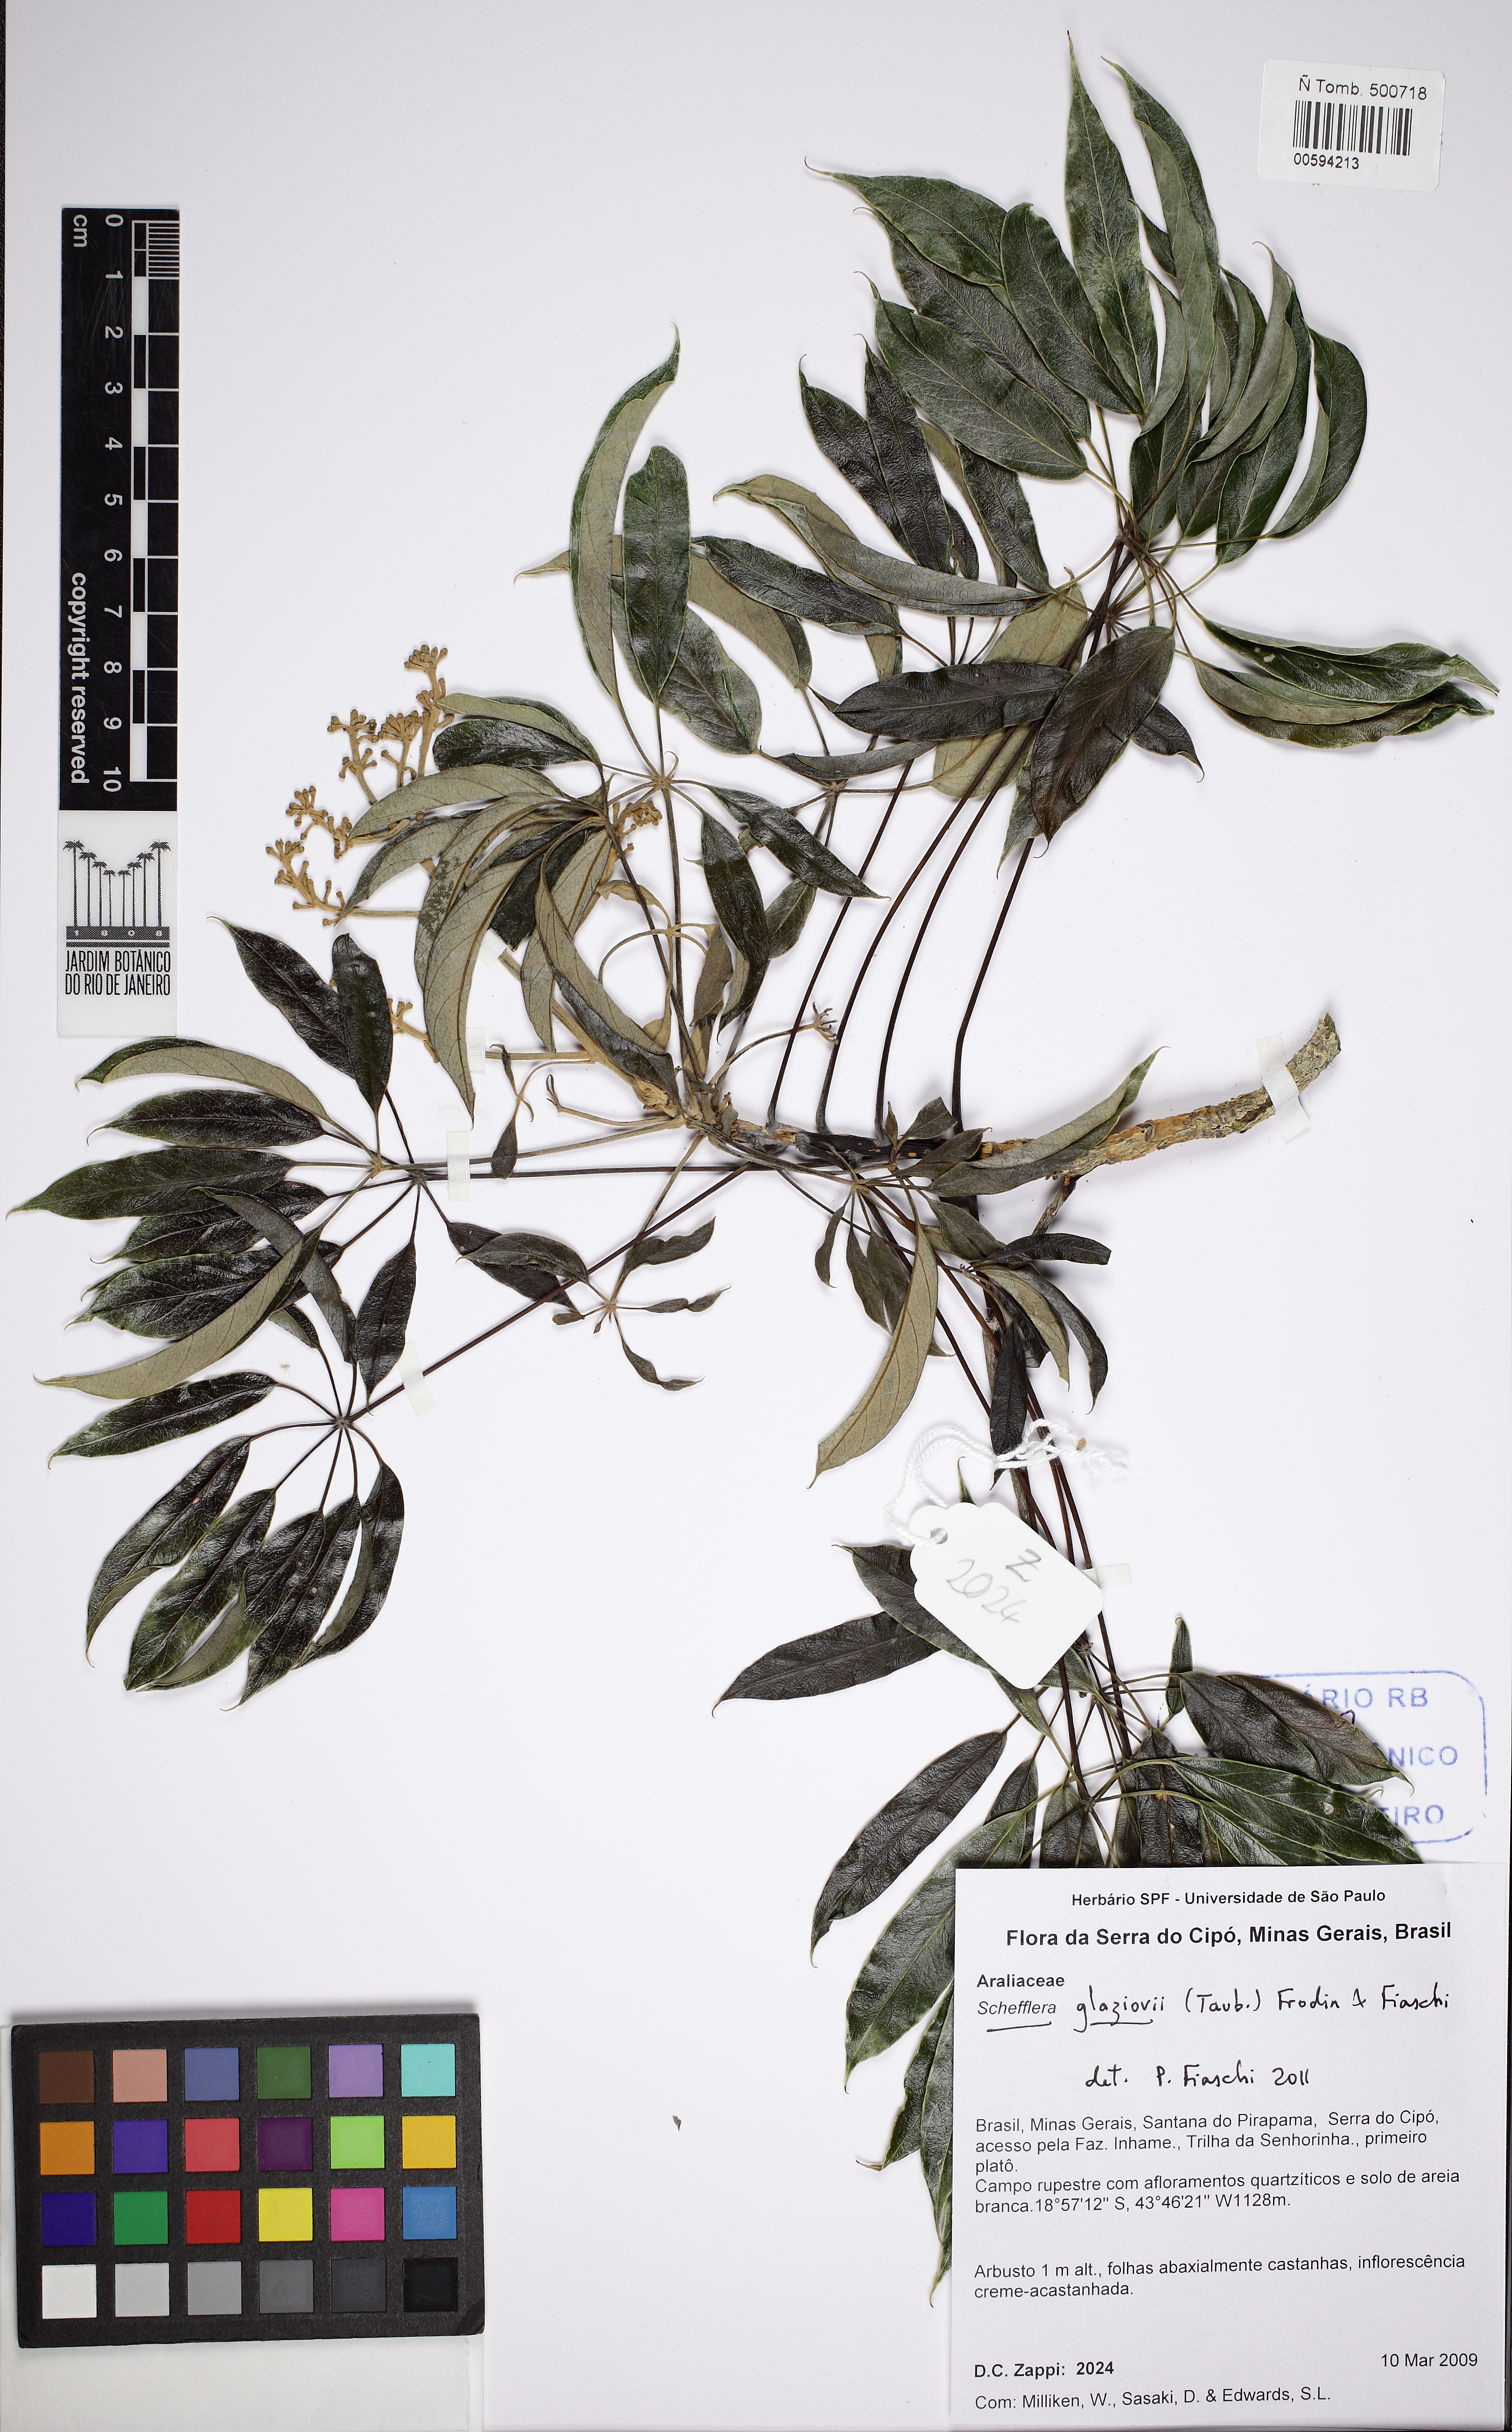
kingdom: Plantae
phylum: Tracheophyta
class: Magnoliopsida
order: Apiales
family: Araliaceae
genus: Didymopanax
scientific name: Didymopanax glaziovii
